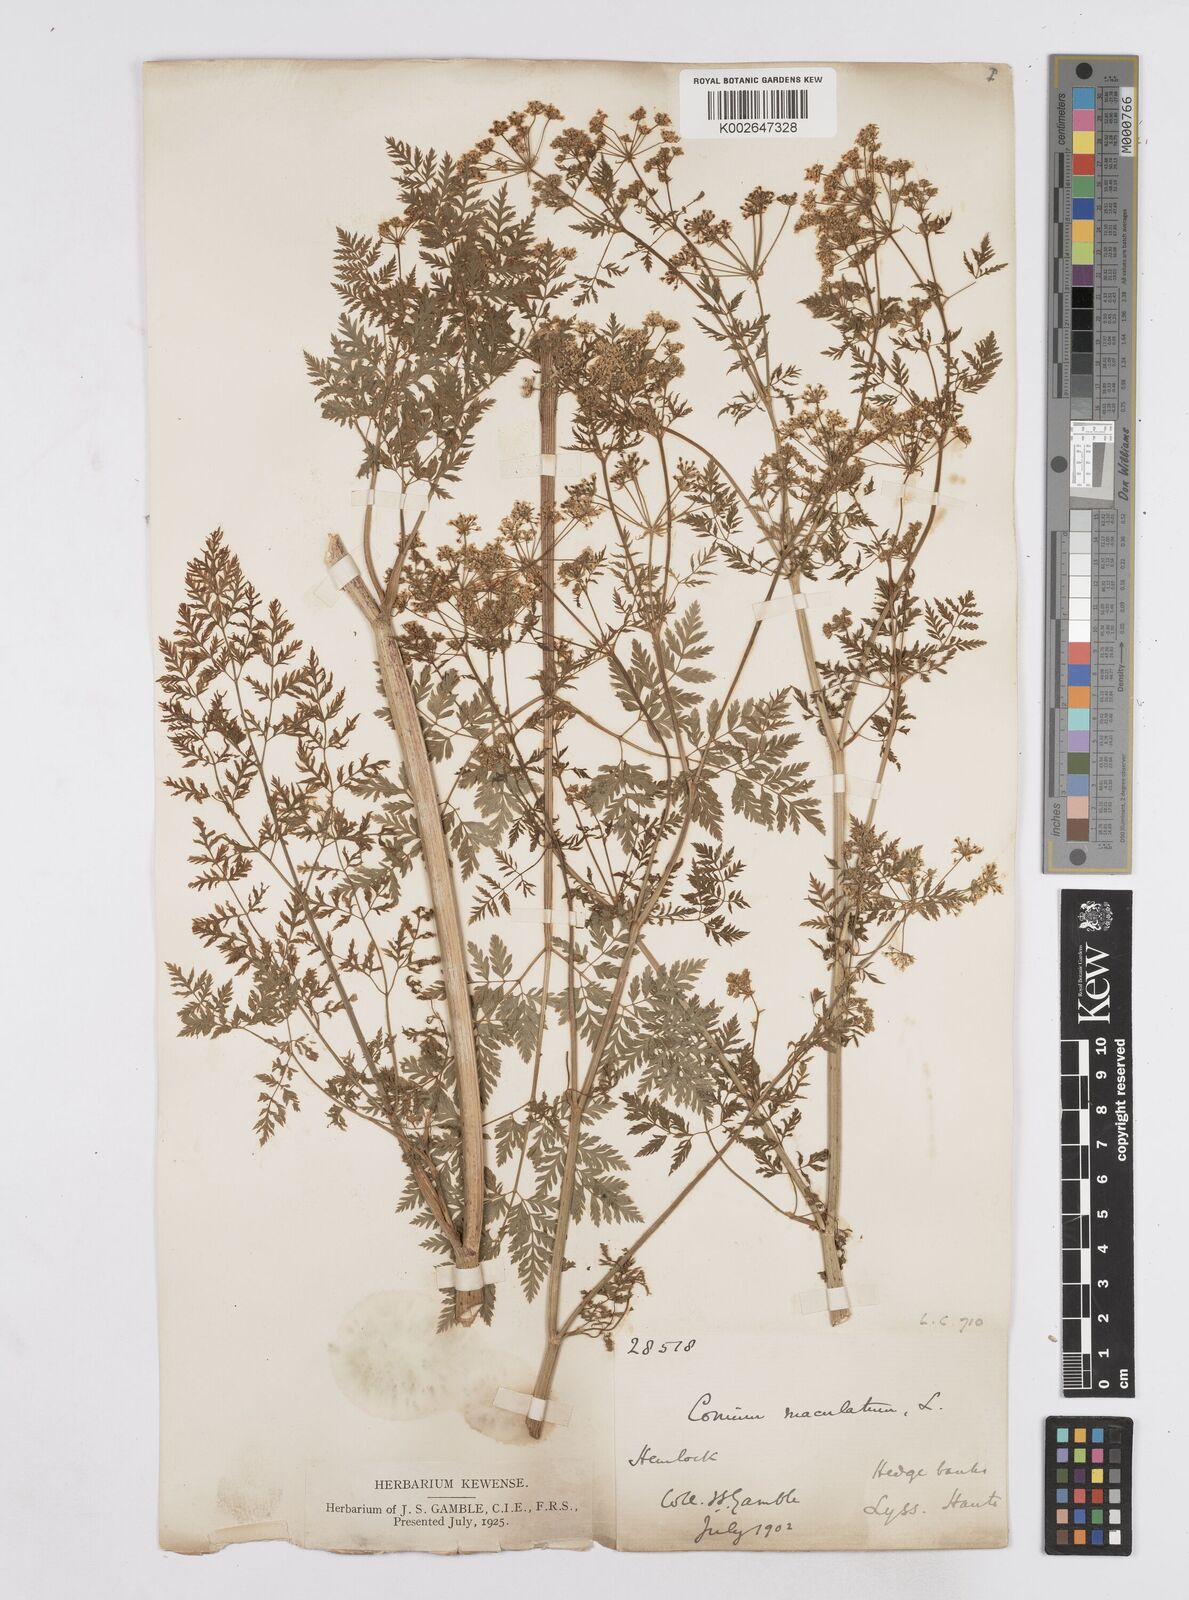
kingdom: Plantae
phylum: Tracheophyta
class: Magnoliopsida
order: Apiales
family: Apiaceae
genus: Conium
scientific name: Conium maculatum
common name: Hemlock
